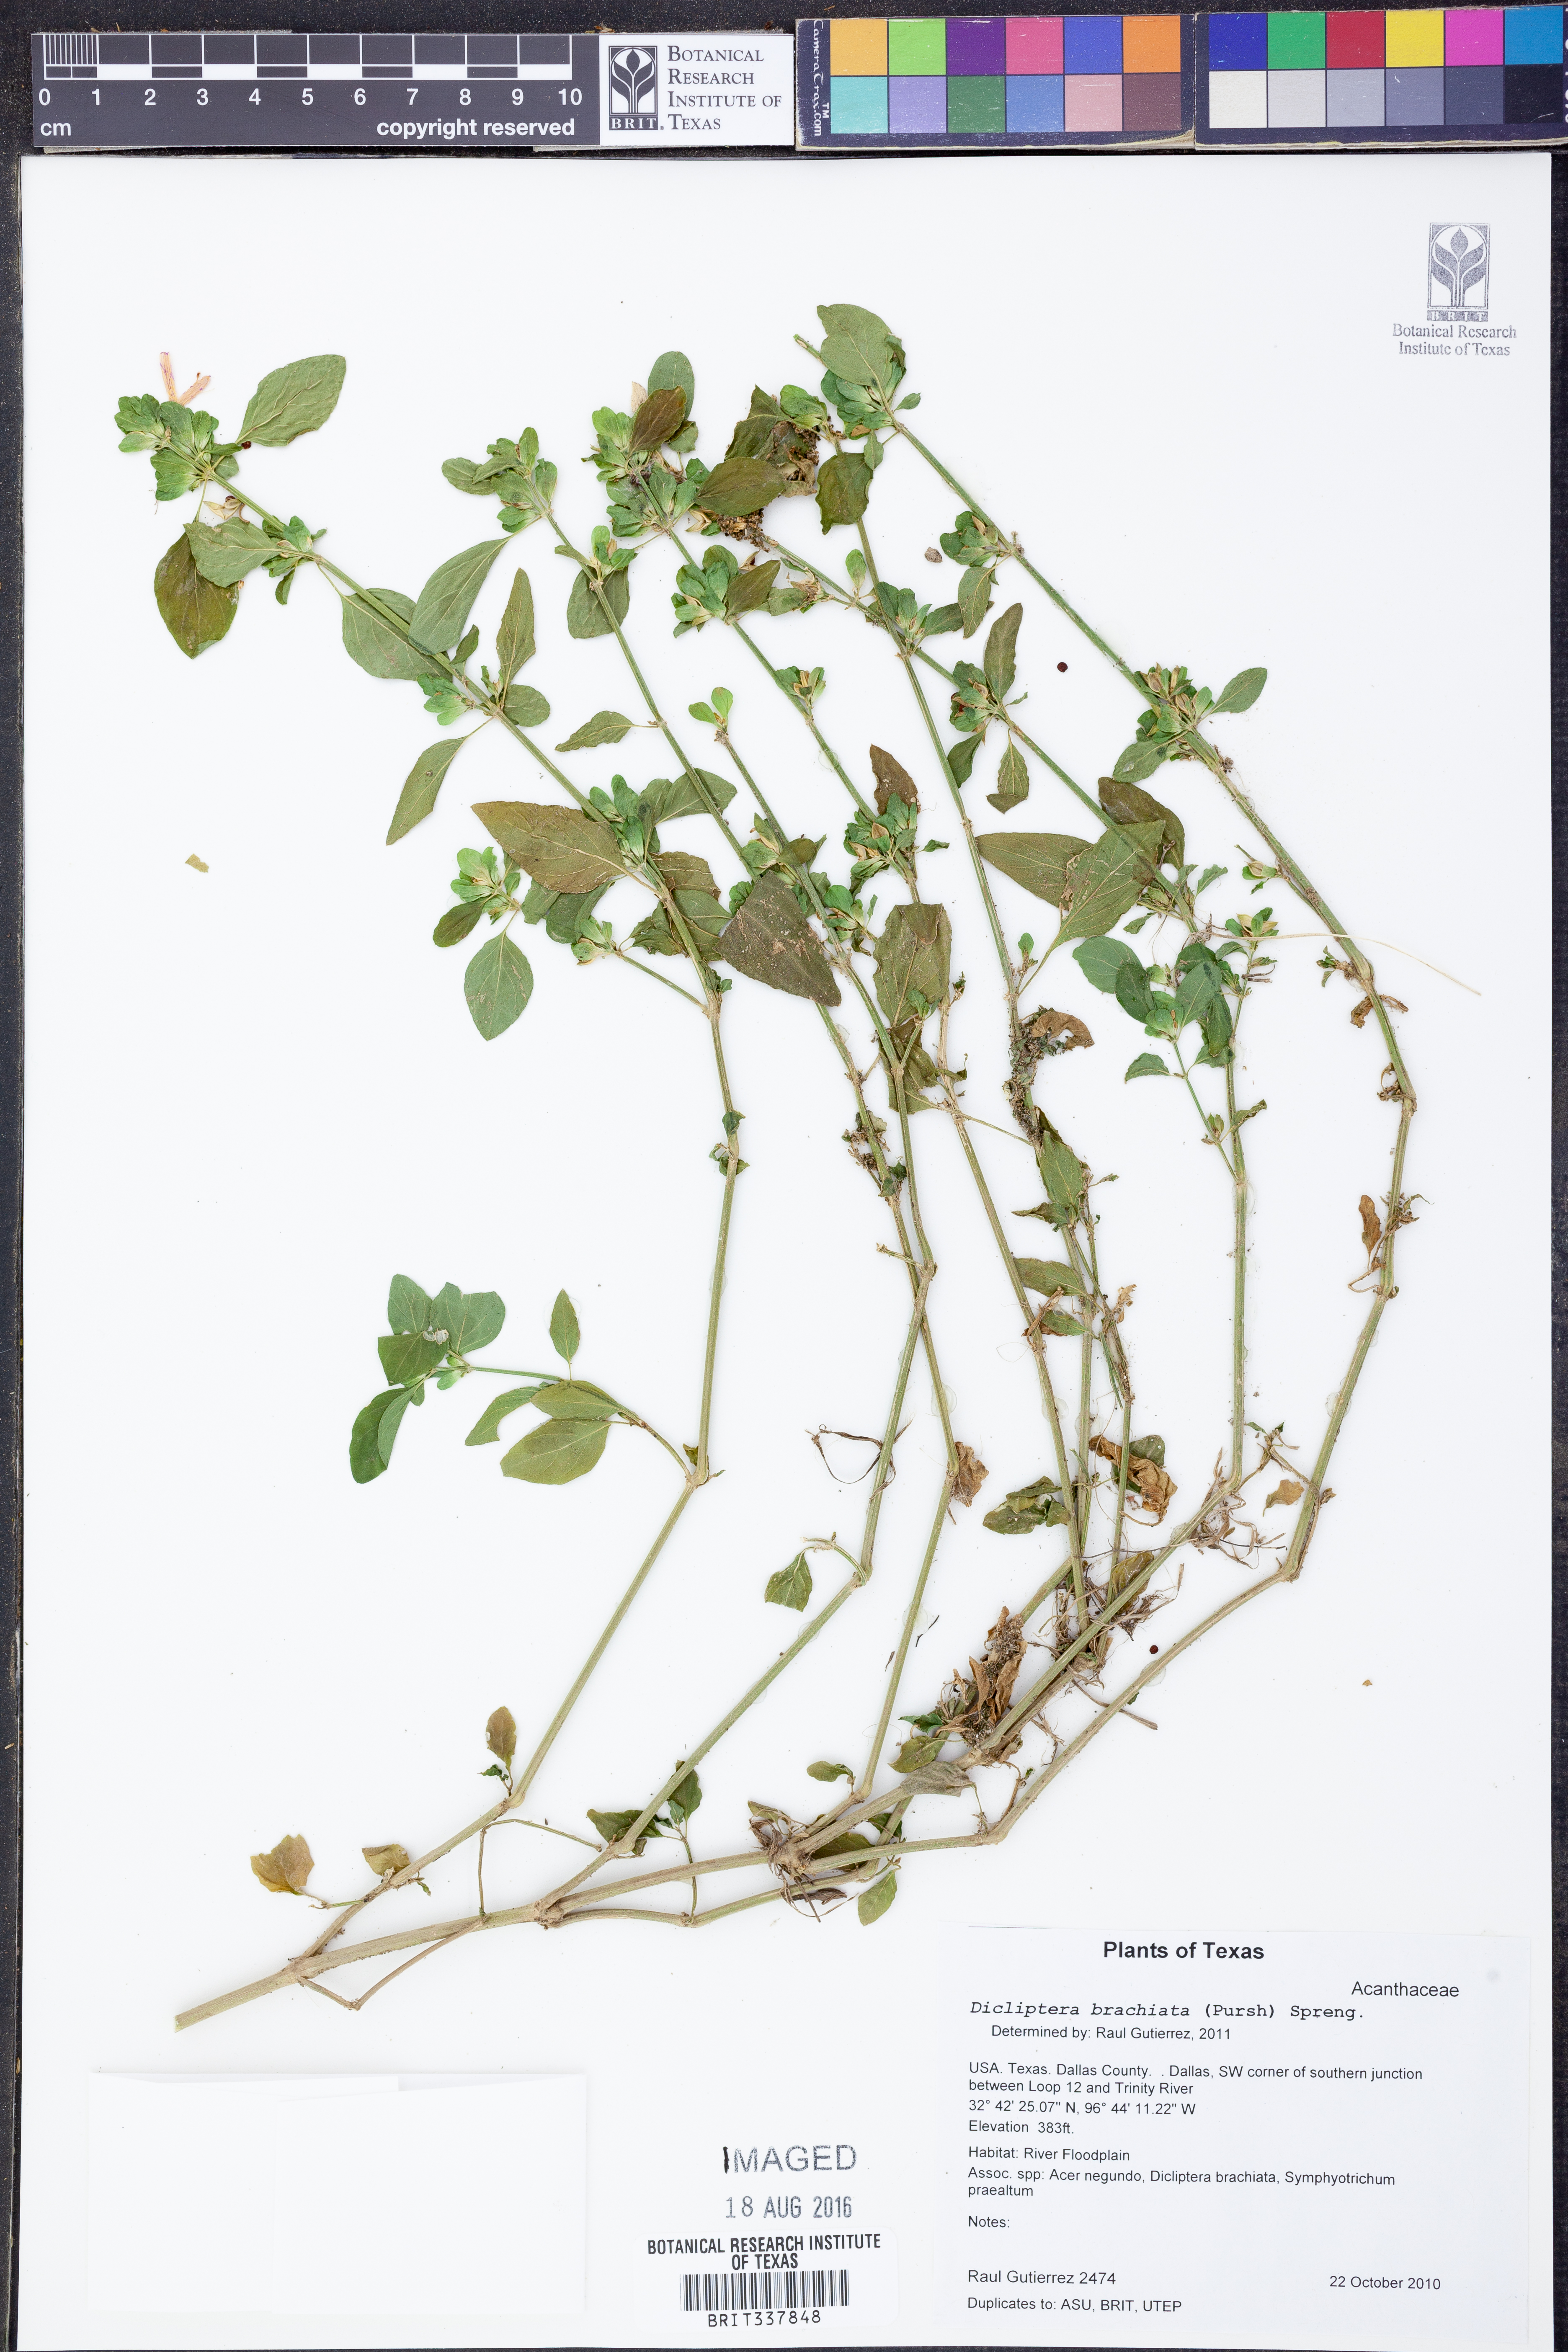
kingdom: Plantae
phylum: Tracheophyta
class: Magnoliopsida
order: Lamiales
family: Acanthaceae
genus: Dicliptera
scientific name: Dicliptera brachiata
